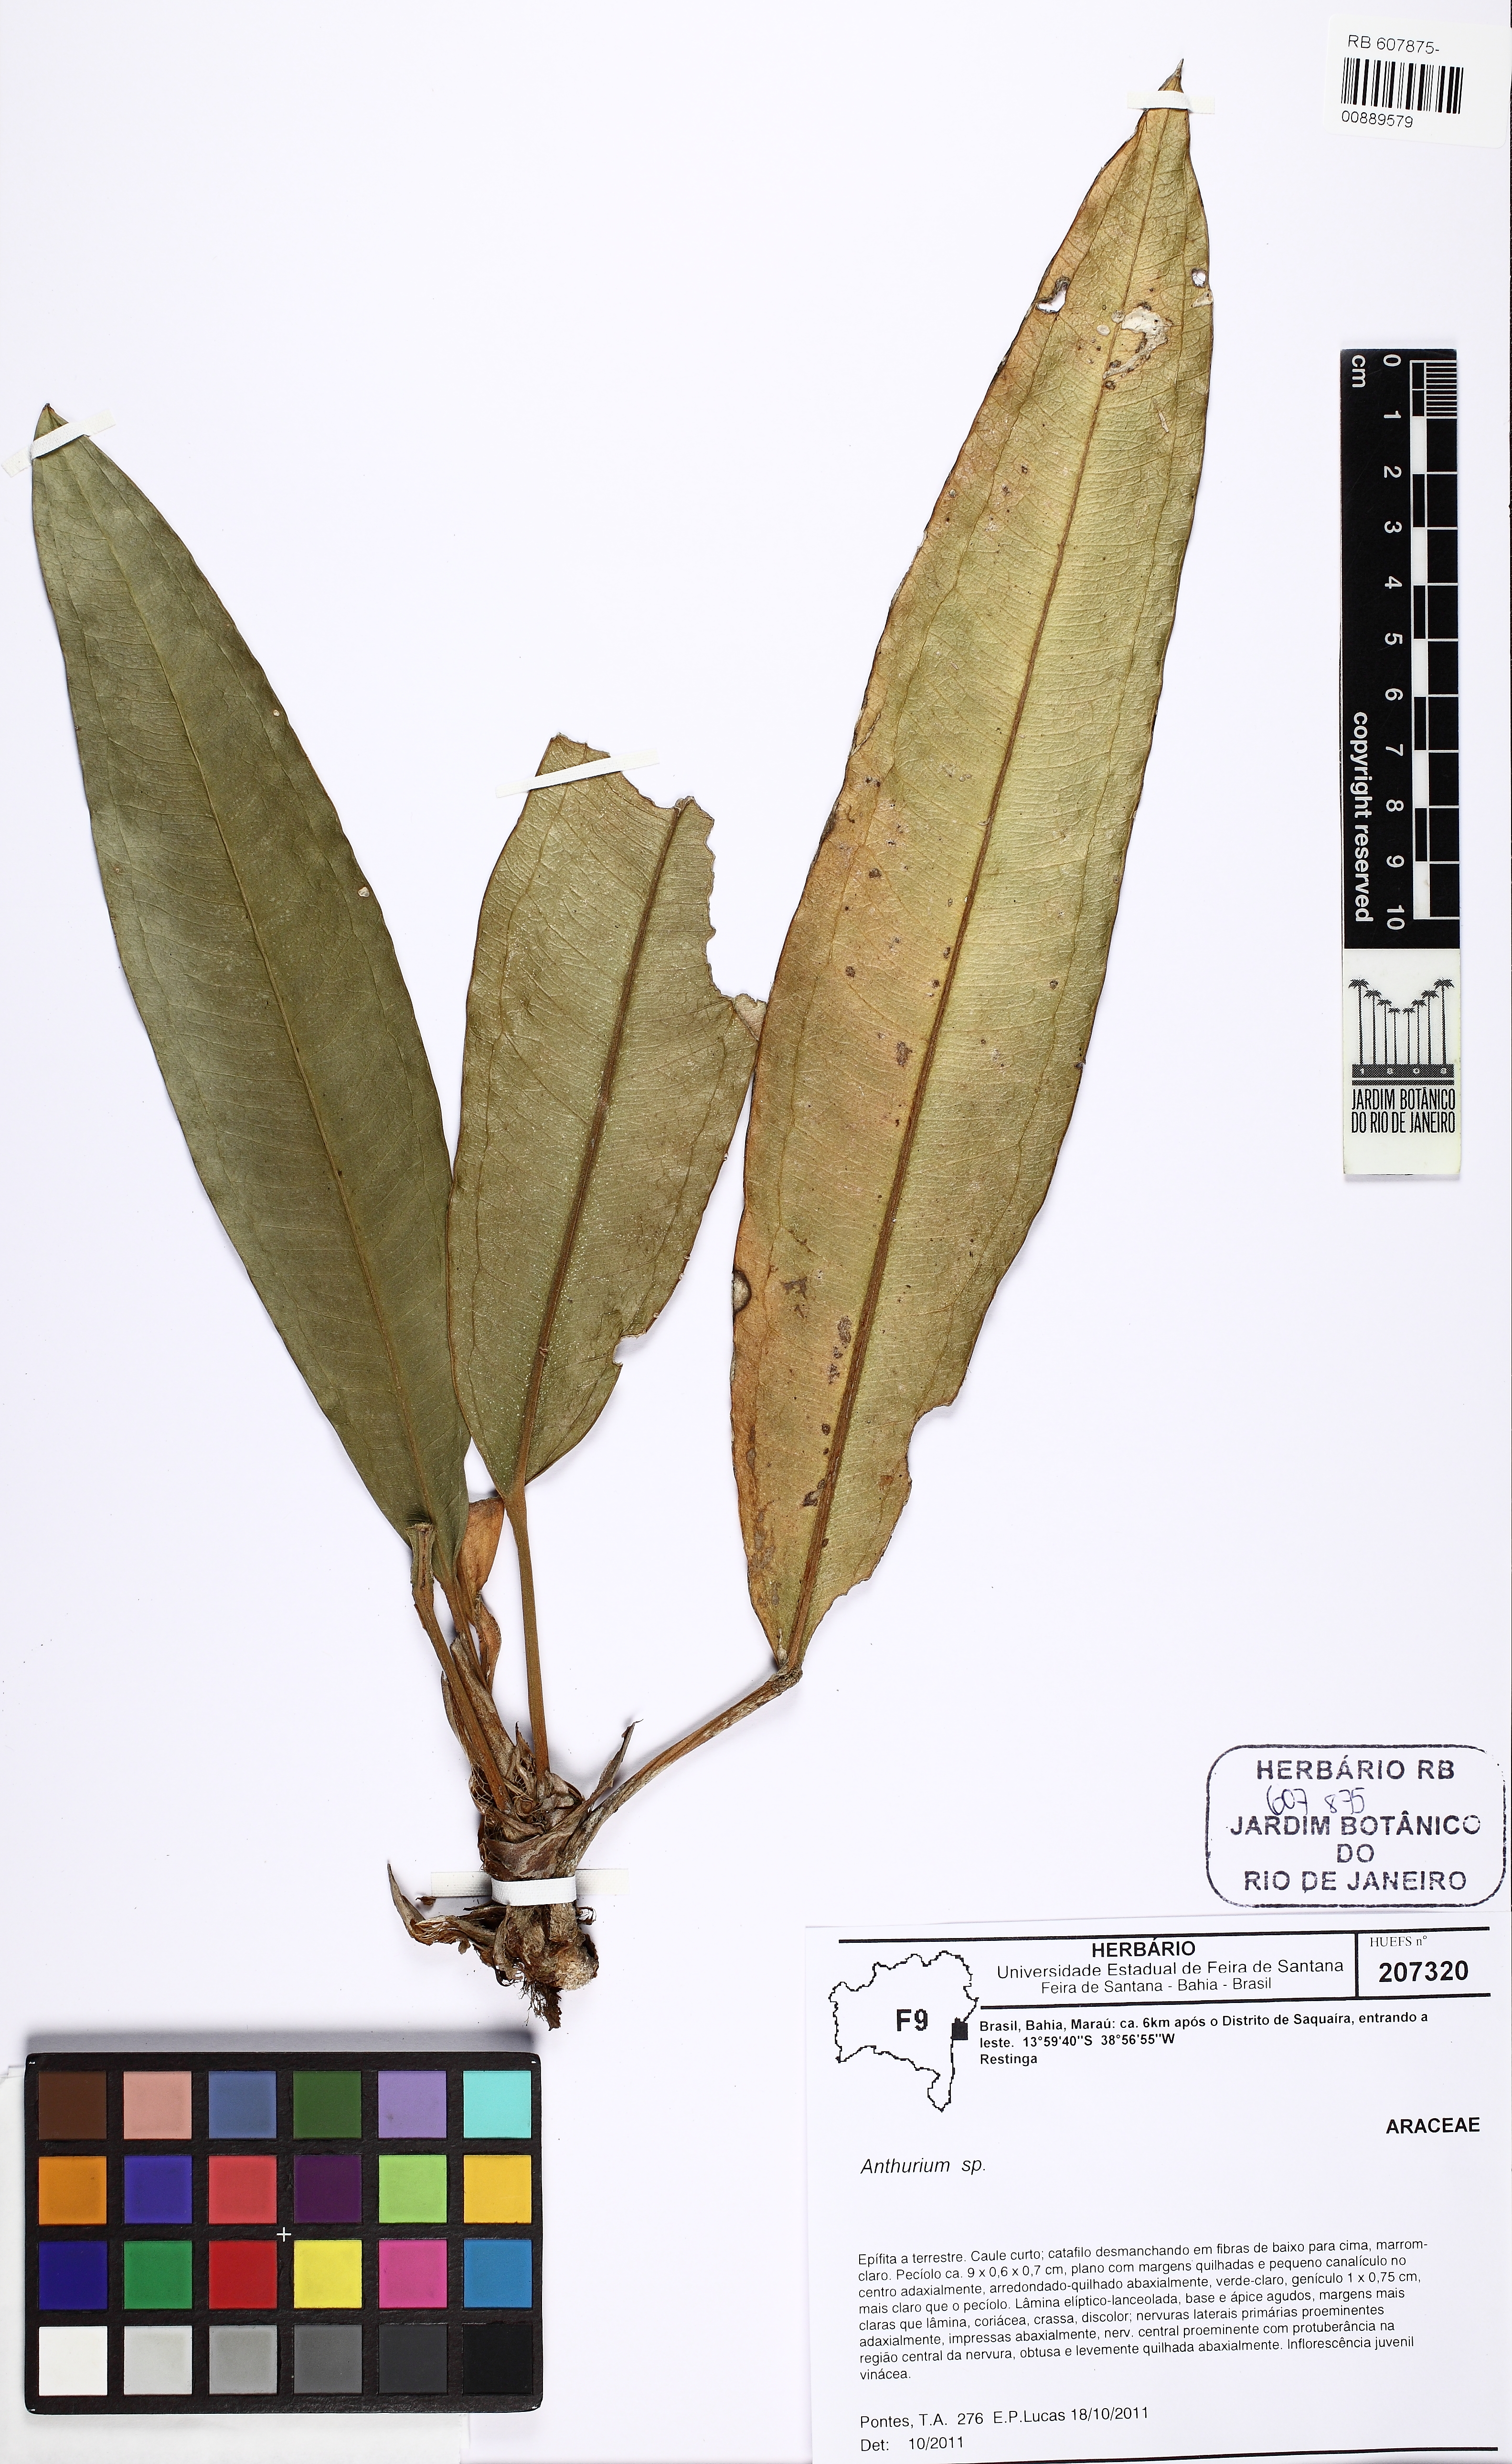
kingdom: Plantae
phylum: Tracheophyta
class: Liliopsida
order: Alismatales
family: Araceae
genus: Anthurium
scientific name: Anthurium
